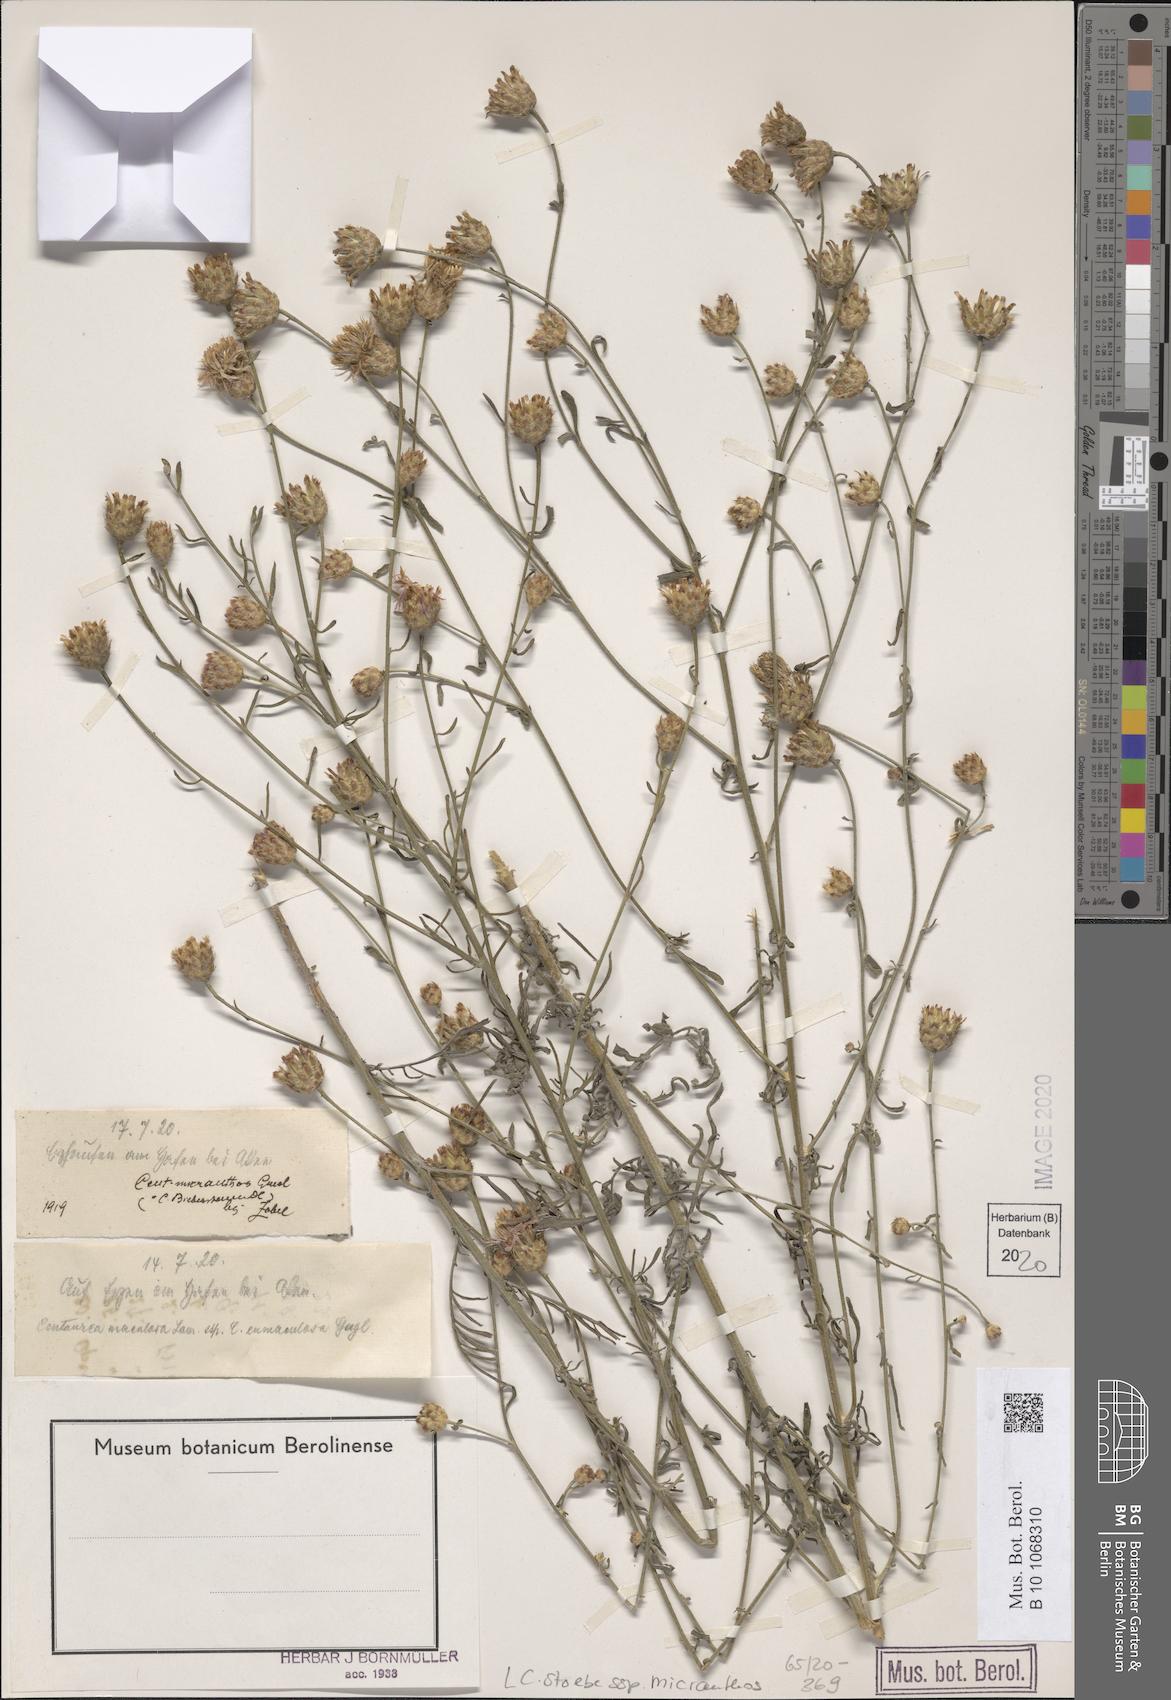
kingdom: Plantae
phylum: Tracheophyta
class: Magnoliopsida
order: Asterales
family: Asteraceae
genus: Centaurea
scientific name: Centaurea australis
